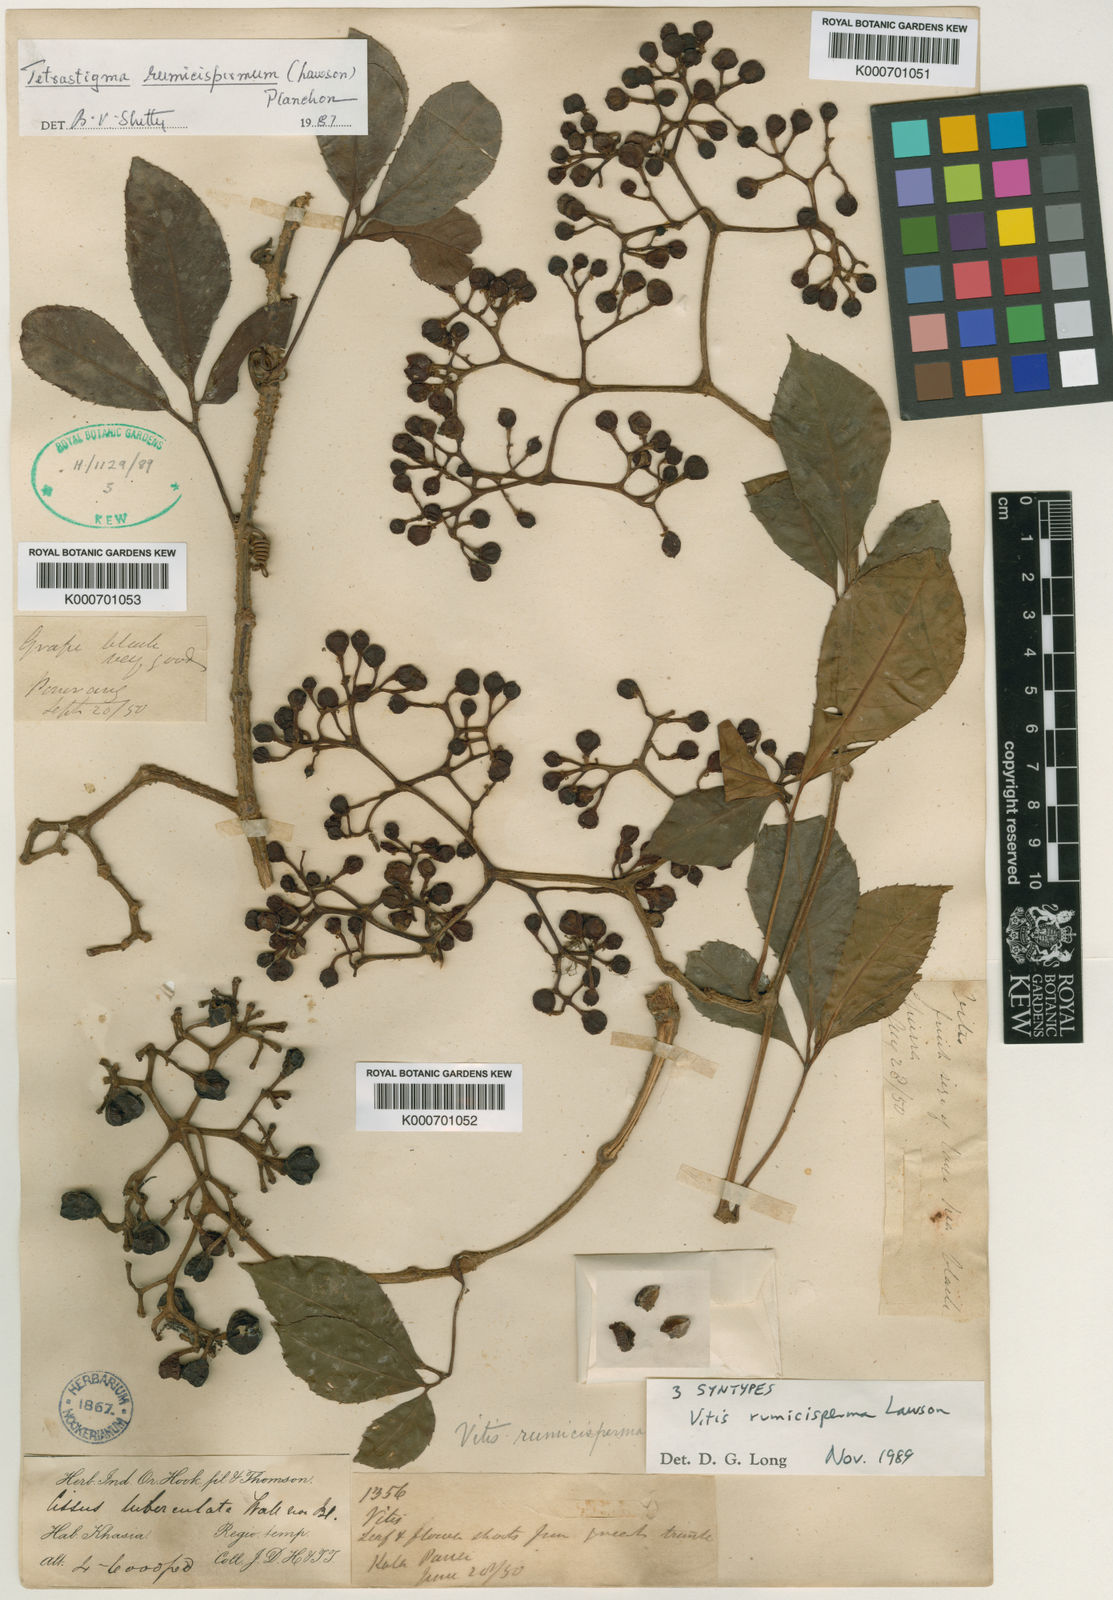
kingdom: Plantae
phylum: Tracheophyta
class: Magnoliopsida
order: Vitales
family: Vitaceae
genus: Tetrastigma
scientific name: Tetrastigma rumicispermum
